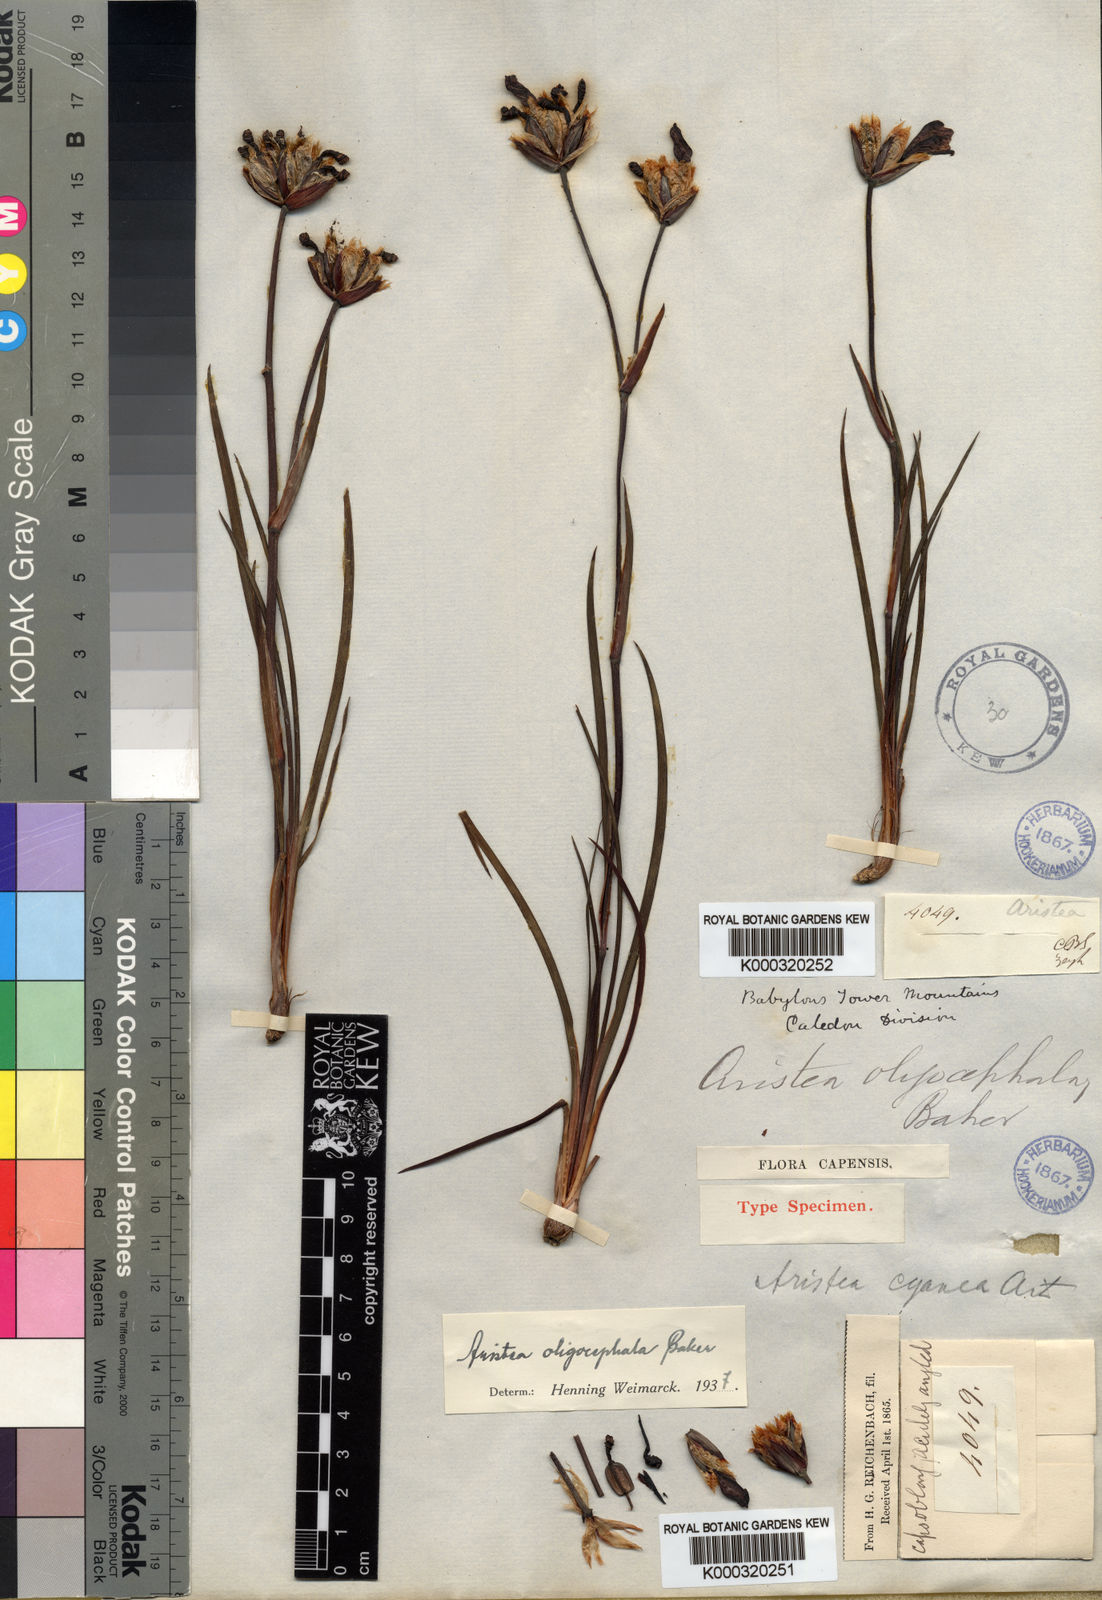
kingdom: Plantae
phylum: Tracheophyta
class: Liliopsida
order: Asparagales
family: Iridaceae
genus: Aristea
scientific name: Aristea oligocephala
